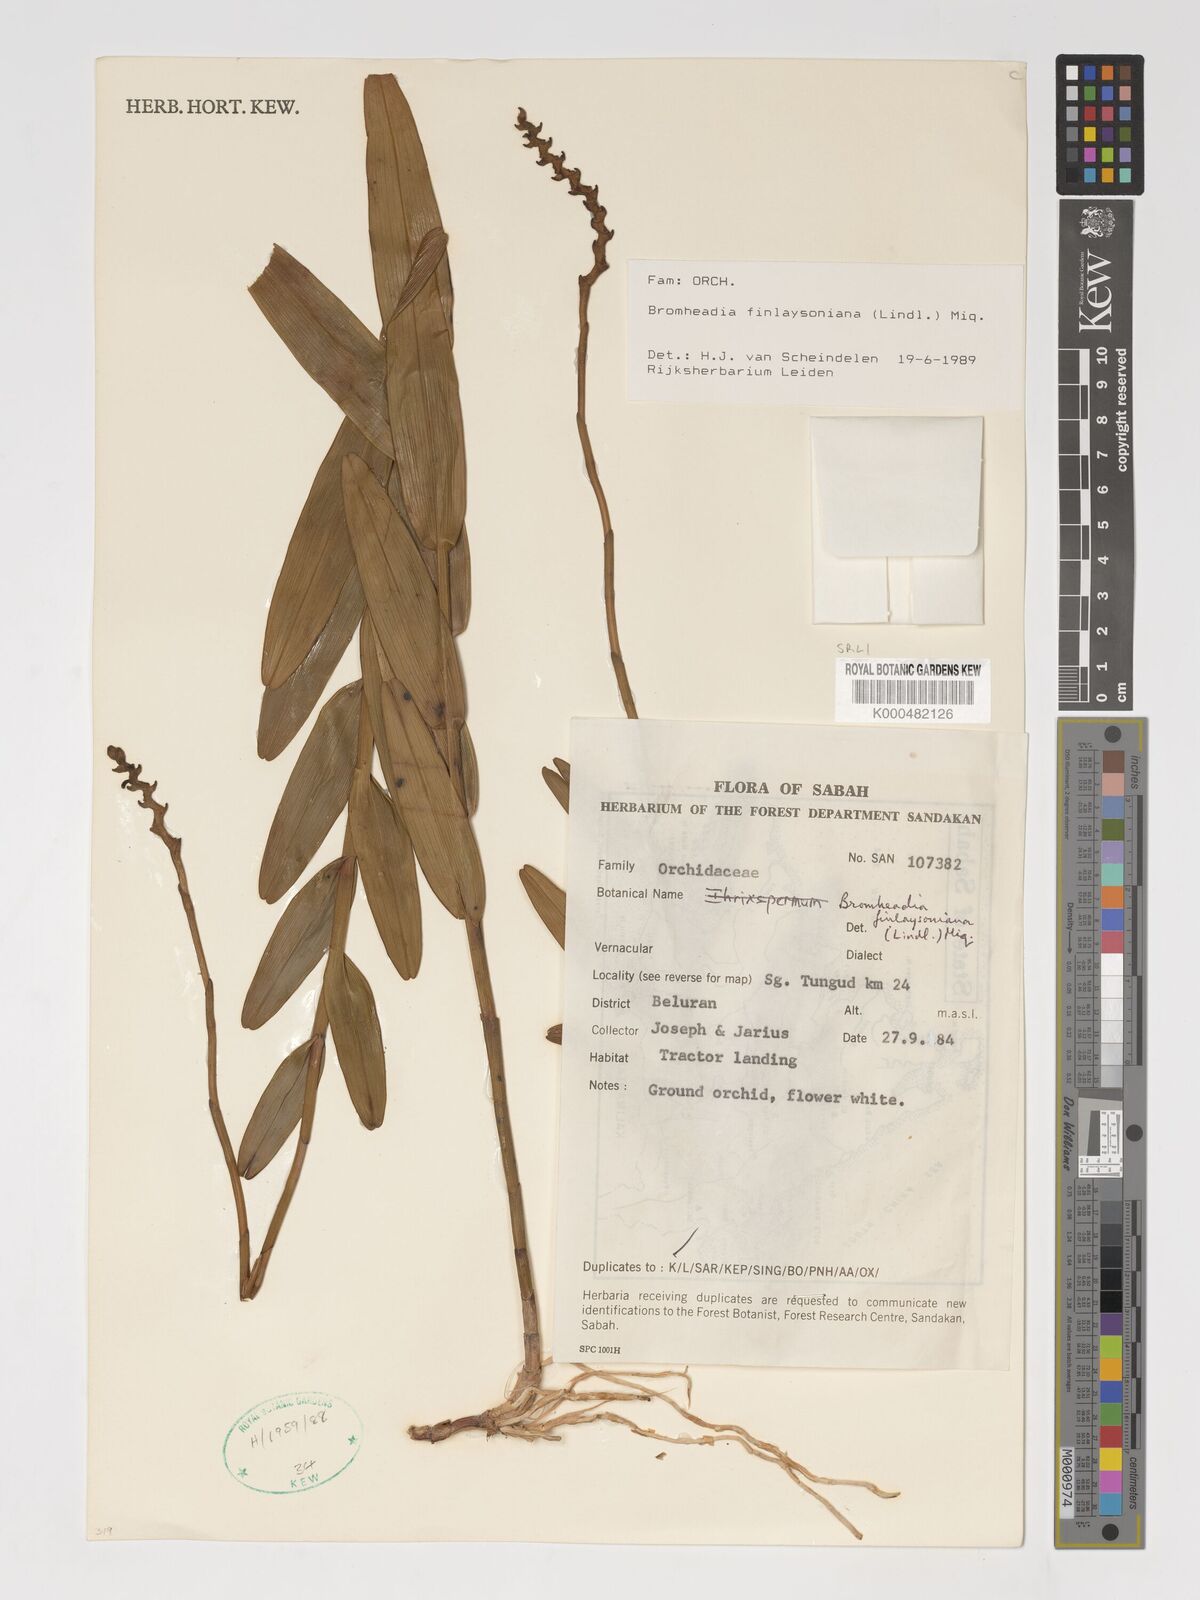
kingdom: Plantae
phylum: Tracheophyta
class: Liliopsida
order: Asparagales
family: Orchidaceae
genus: Bromheadia
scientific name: Bromheadia finlaysoniana
